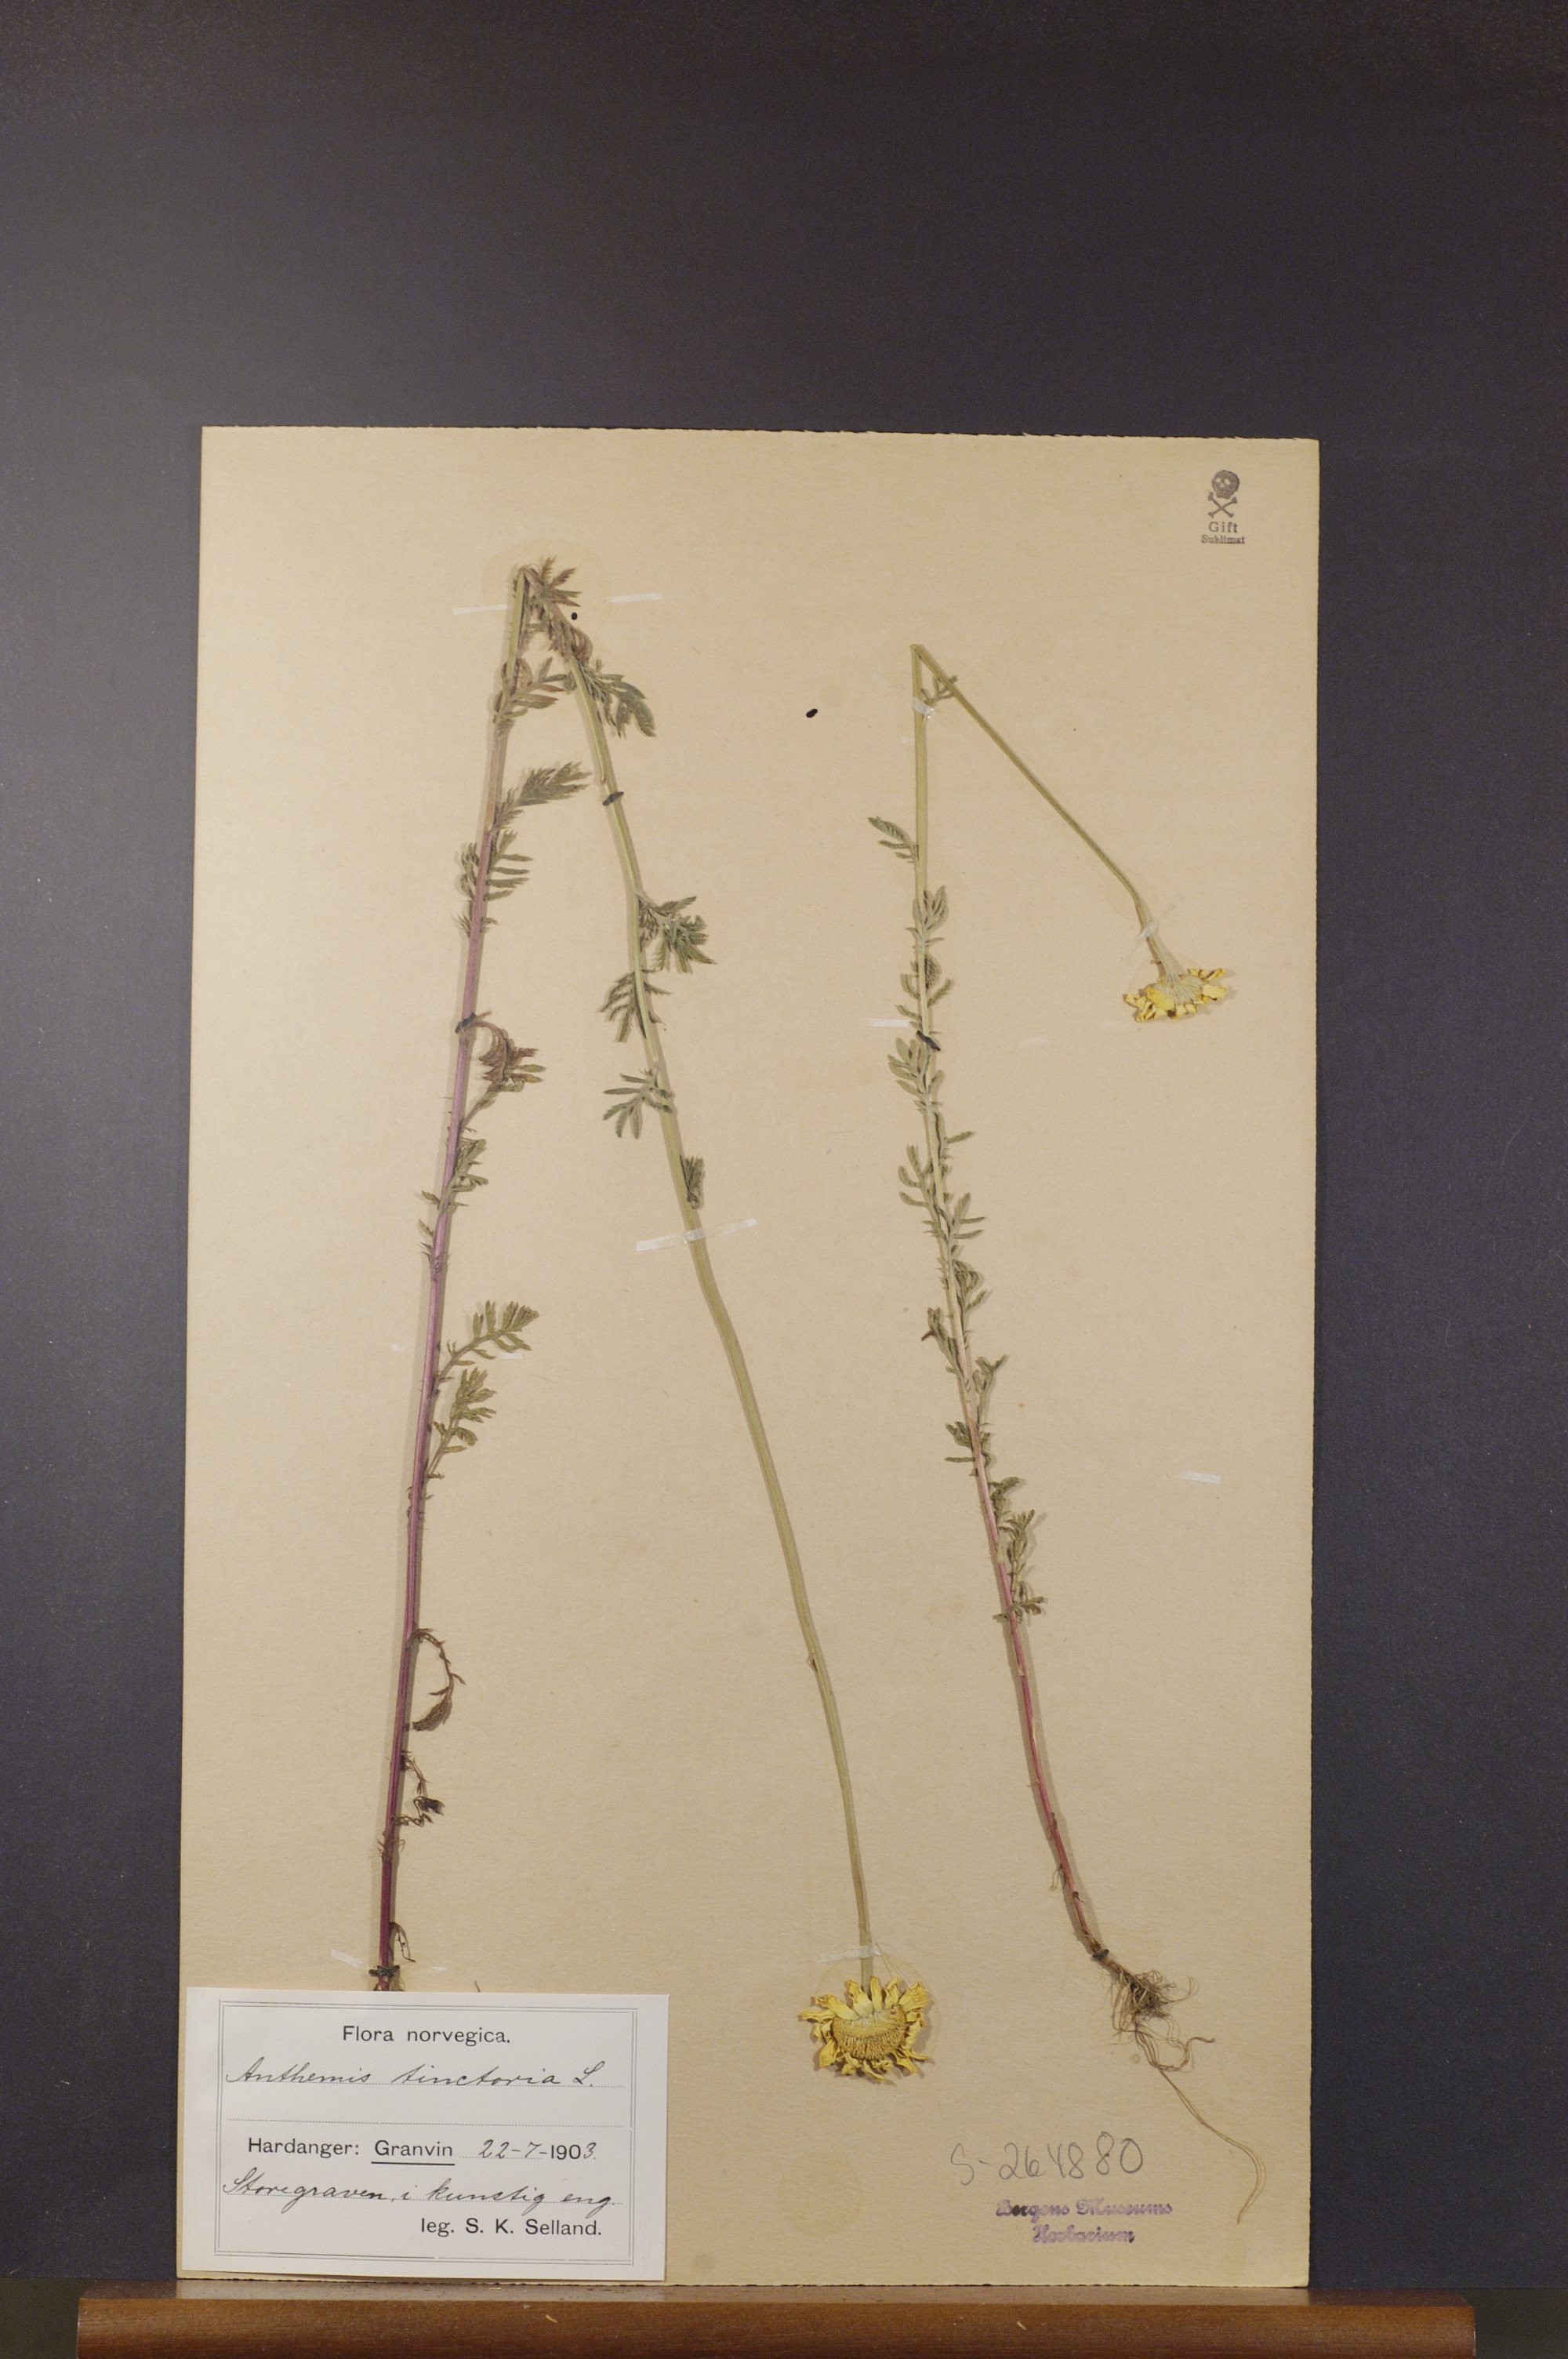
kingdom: Plantae
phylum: Tracheophyta
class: Magnoliopsida
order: Asterales
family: Asteraceae
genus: Cota
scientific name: Cota tinctoria
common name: Golden chamomile
